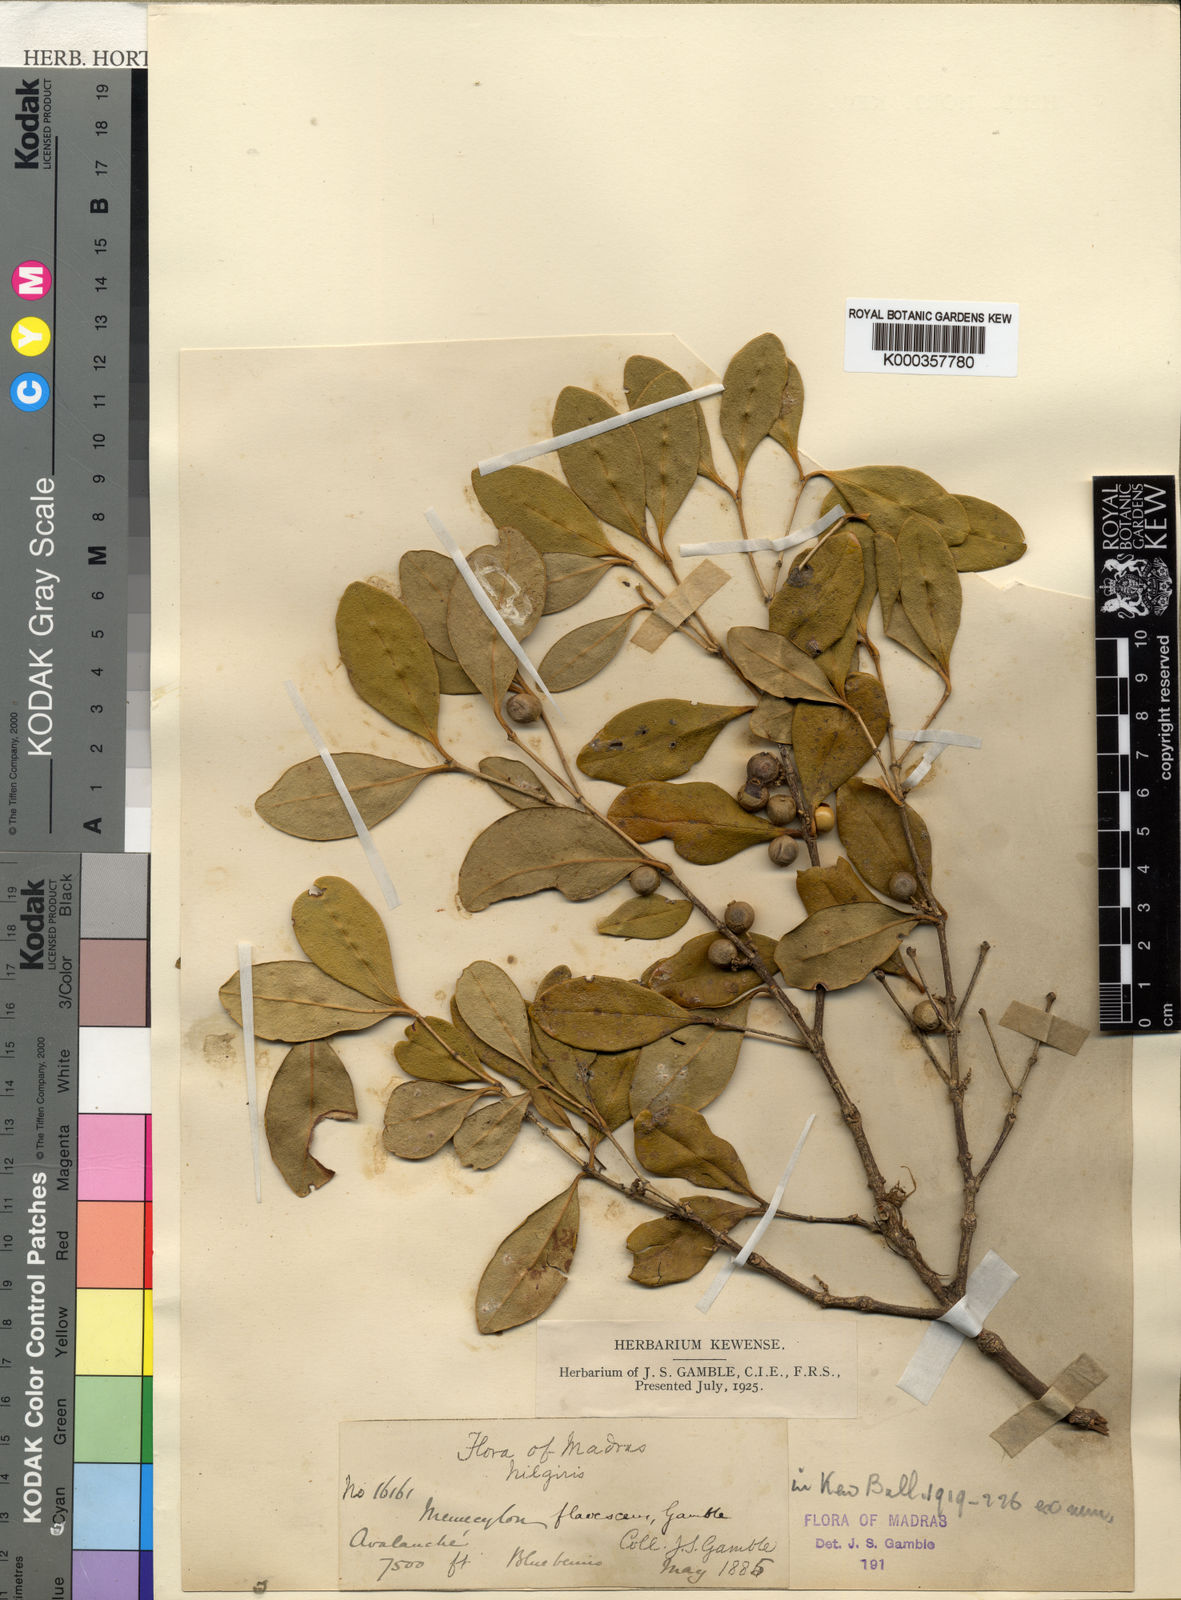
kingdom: Plantae
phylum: Tracheophyta
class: Magnoliopsida
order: Myrtales
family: Melastomataceae
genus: Memecylon
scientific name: Memecylon flavescens
